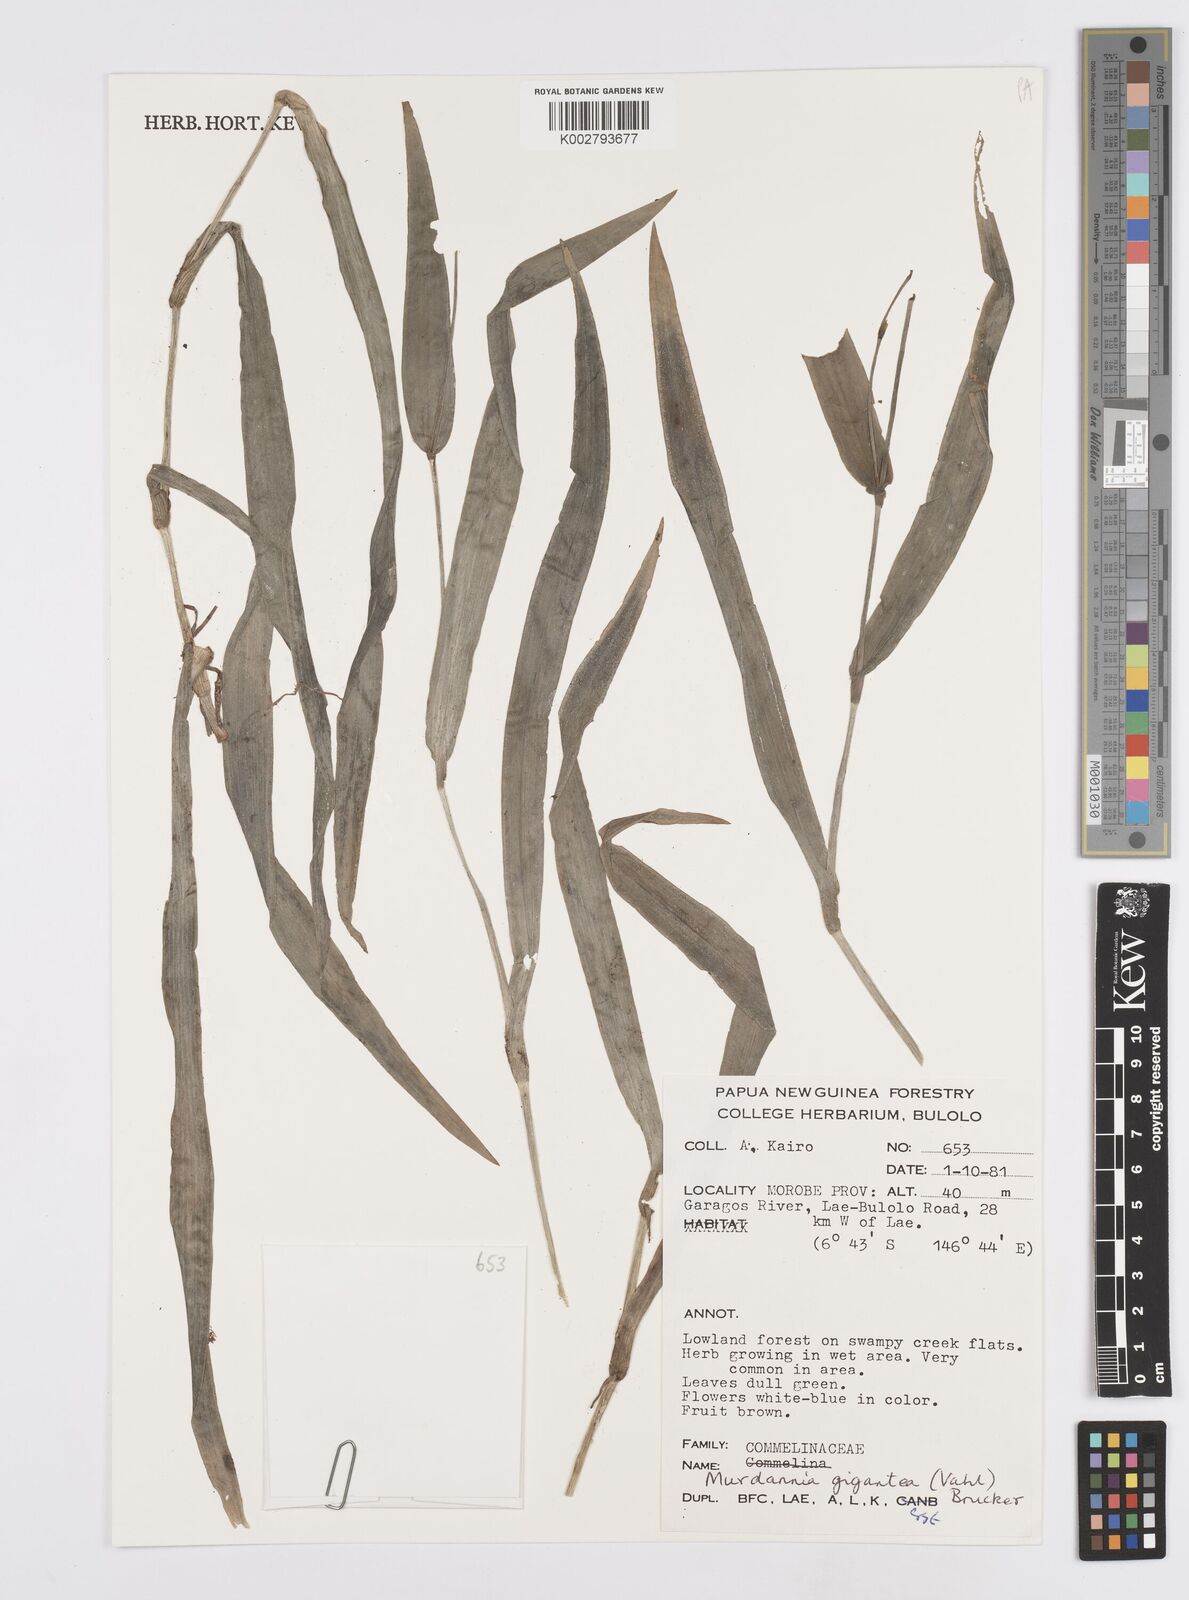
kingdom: Plantae
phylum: Tracheophyta
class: Liliopsida
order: Commelinales
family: Commelinaceae
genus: Murdannia
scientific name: Murdannia gigantea
